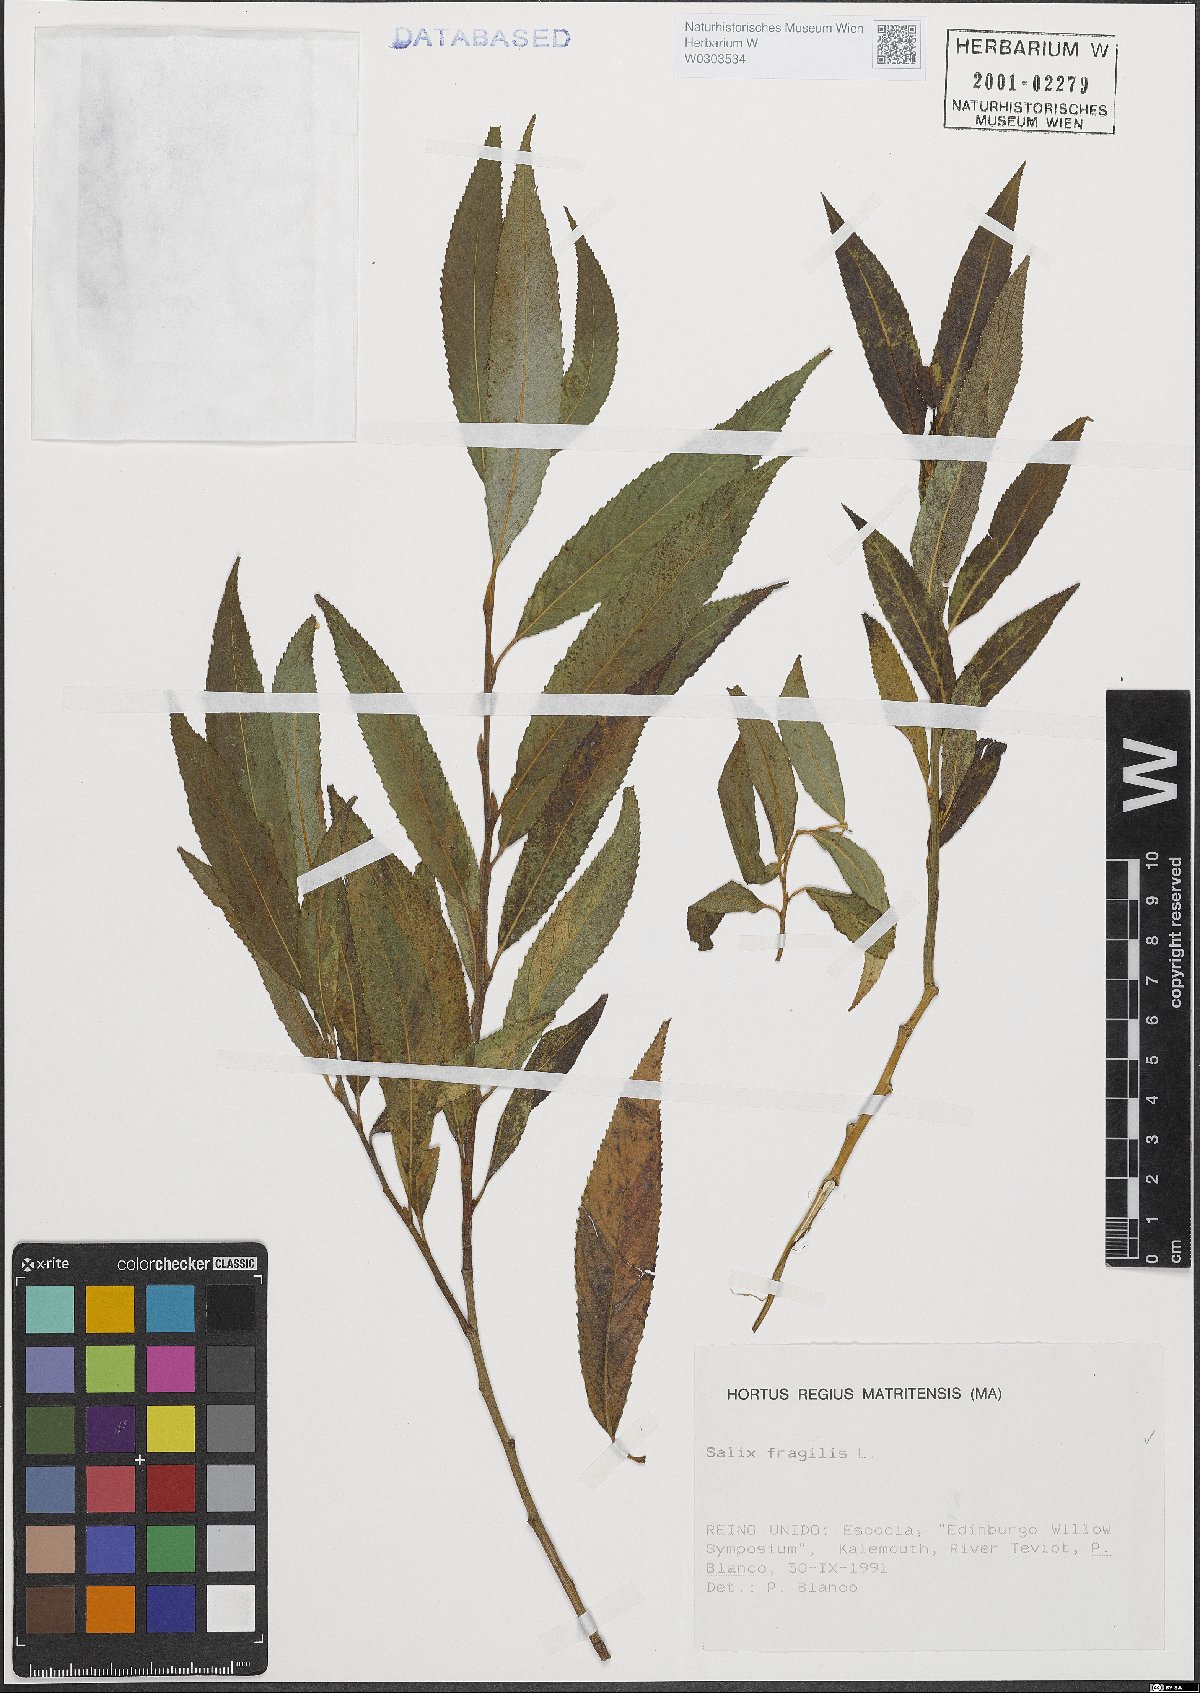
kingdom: Plantae
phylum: Tracheophyta
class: Magnoliopsida
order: Malpighiales
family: Salicaceae
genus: Salix
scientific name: Salix fragilis
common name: Crack willow
